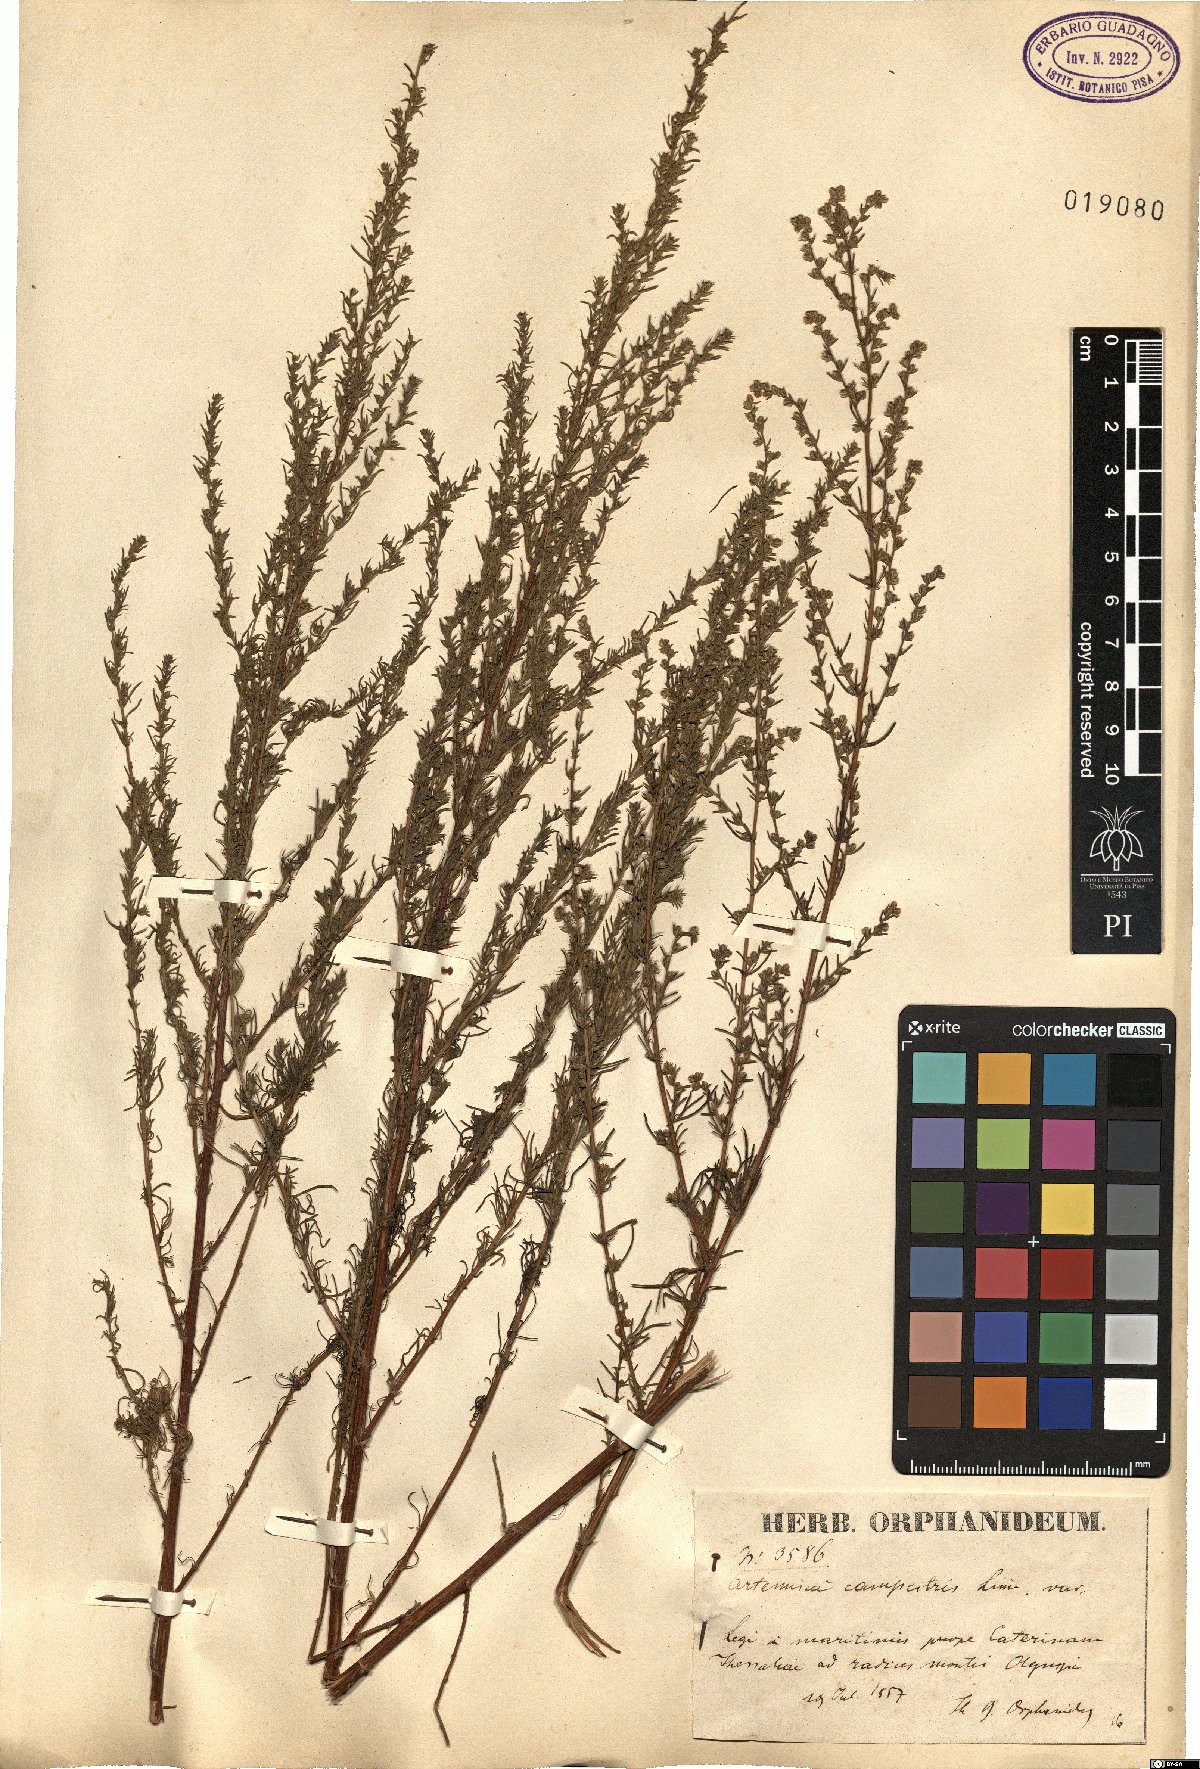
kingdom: Plantae
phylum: Tracheophyta
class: Magnoliopsida
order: Asterales
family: Asteraceae
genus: Artemisia
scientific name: Artemisia campestris
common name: Field wormwood
